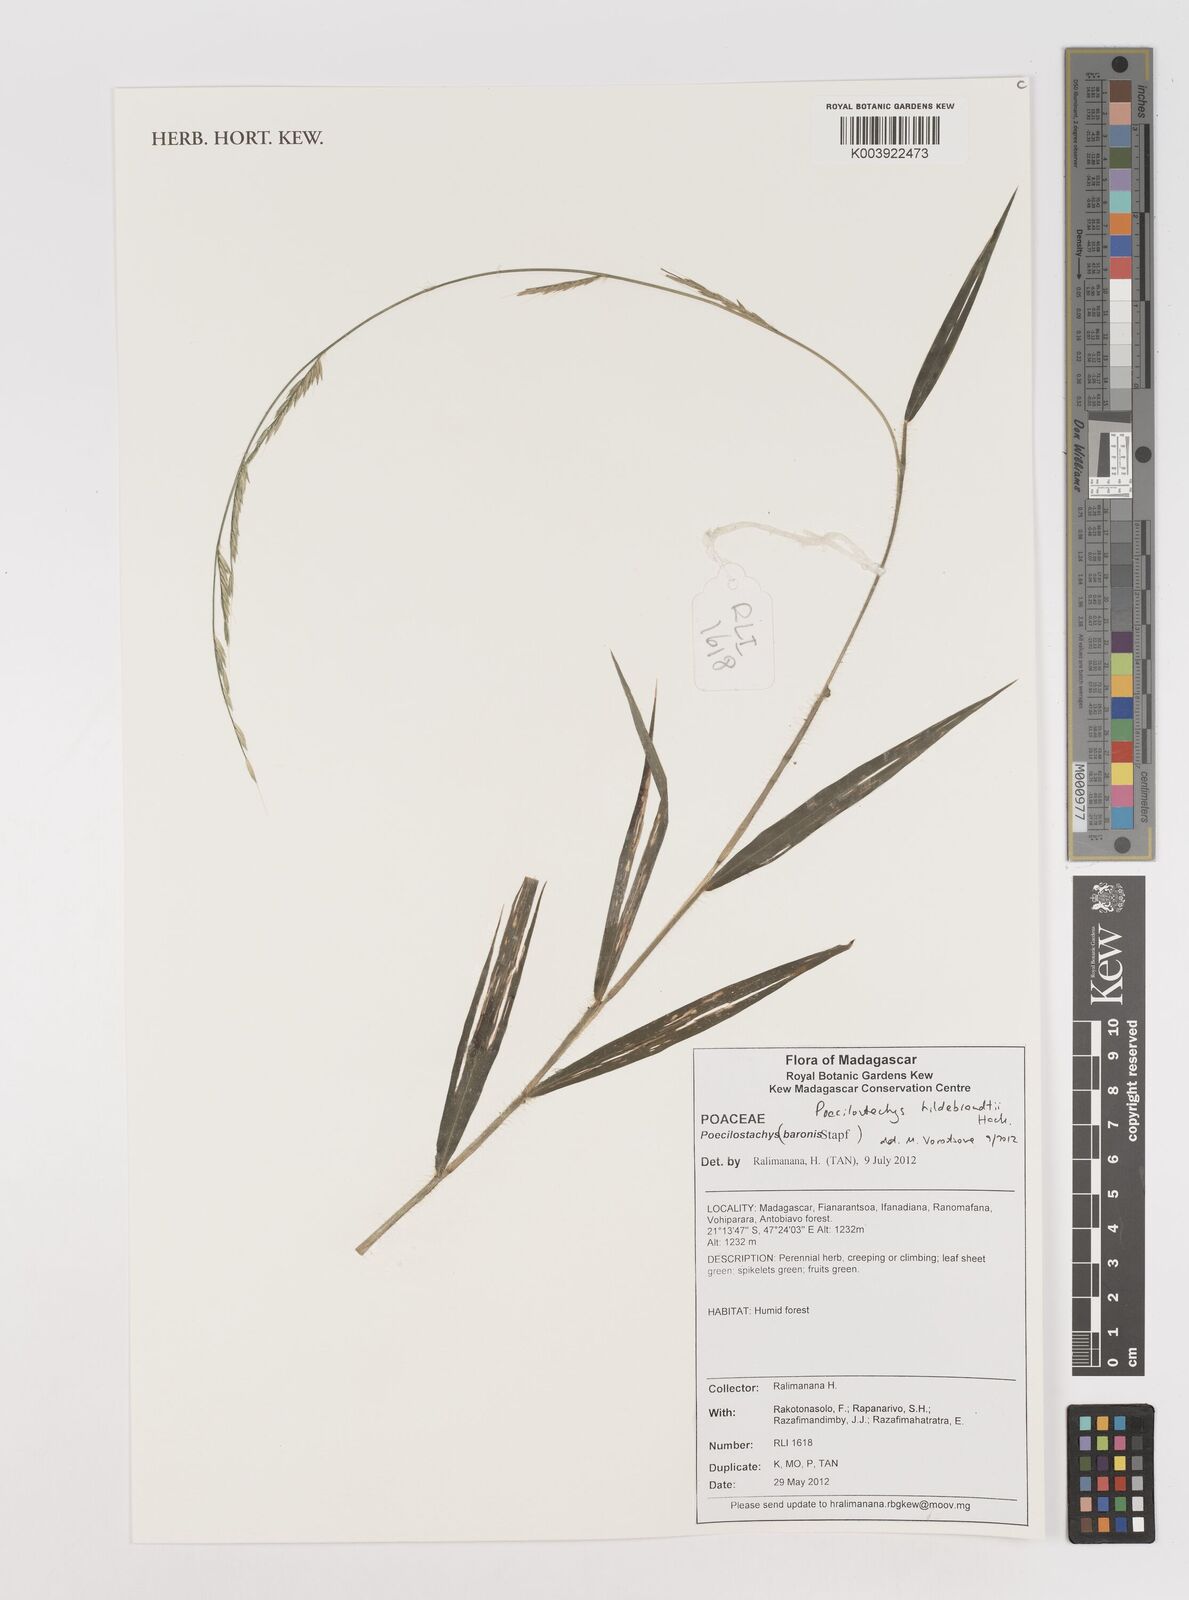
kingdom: Plantae
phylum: Tracheophyta
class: Liliopsida
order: Poales
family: Poaceae
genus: Poecilostachys
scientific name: Poecilostachys hildebrandtii
